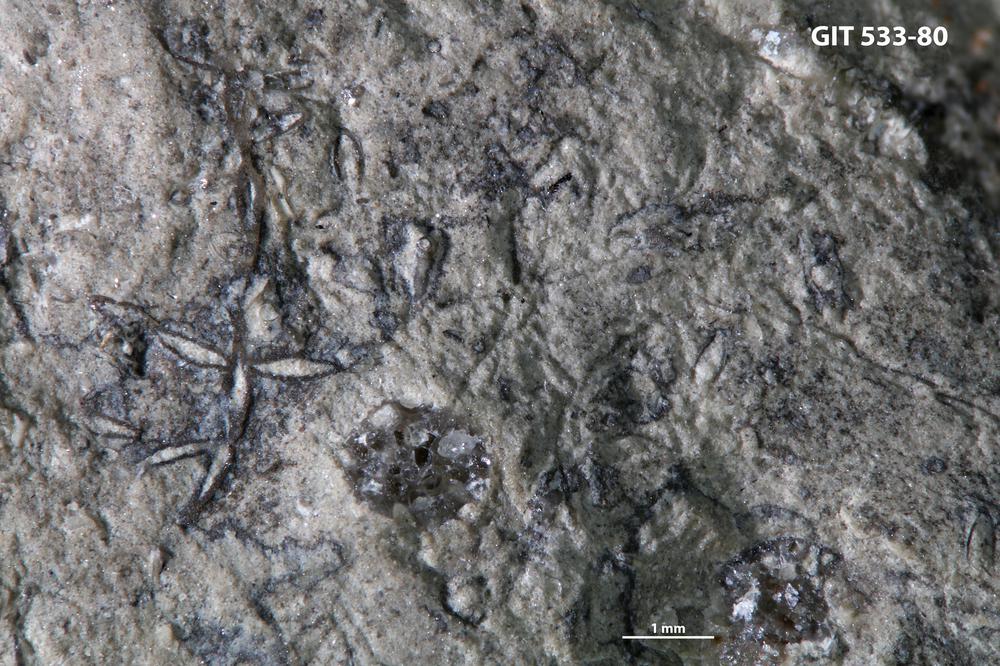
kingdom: Animalia
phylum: Bryozoa
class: Stenolaemata
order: Cyclostomatida
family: Corynotrypidae
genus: Corynotrypa
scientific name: Corynotrypa
